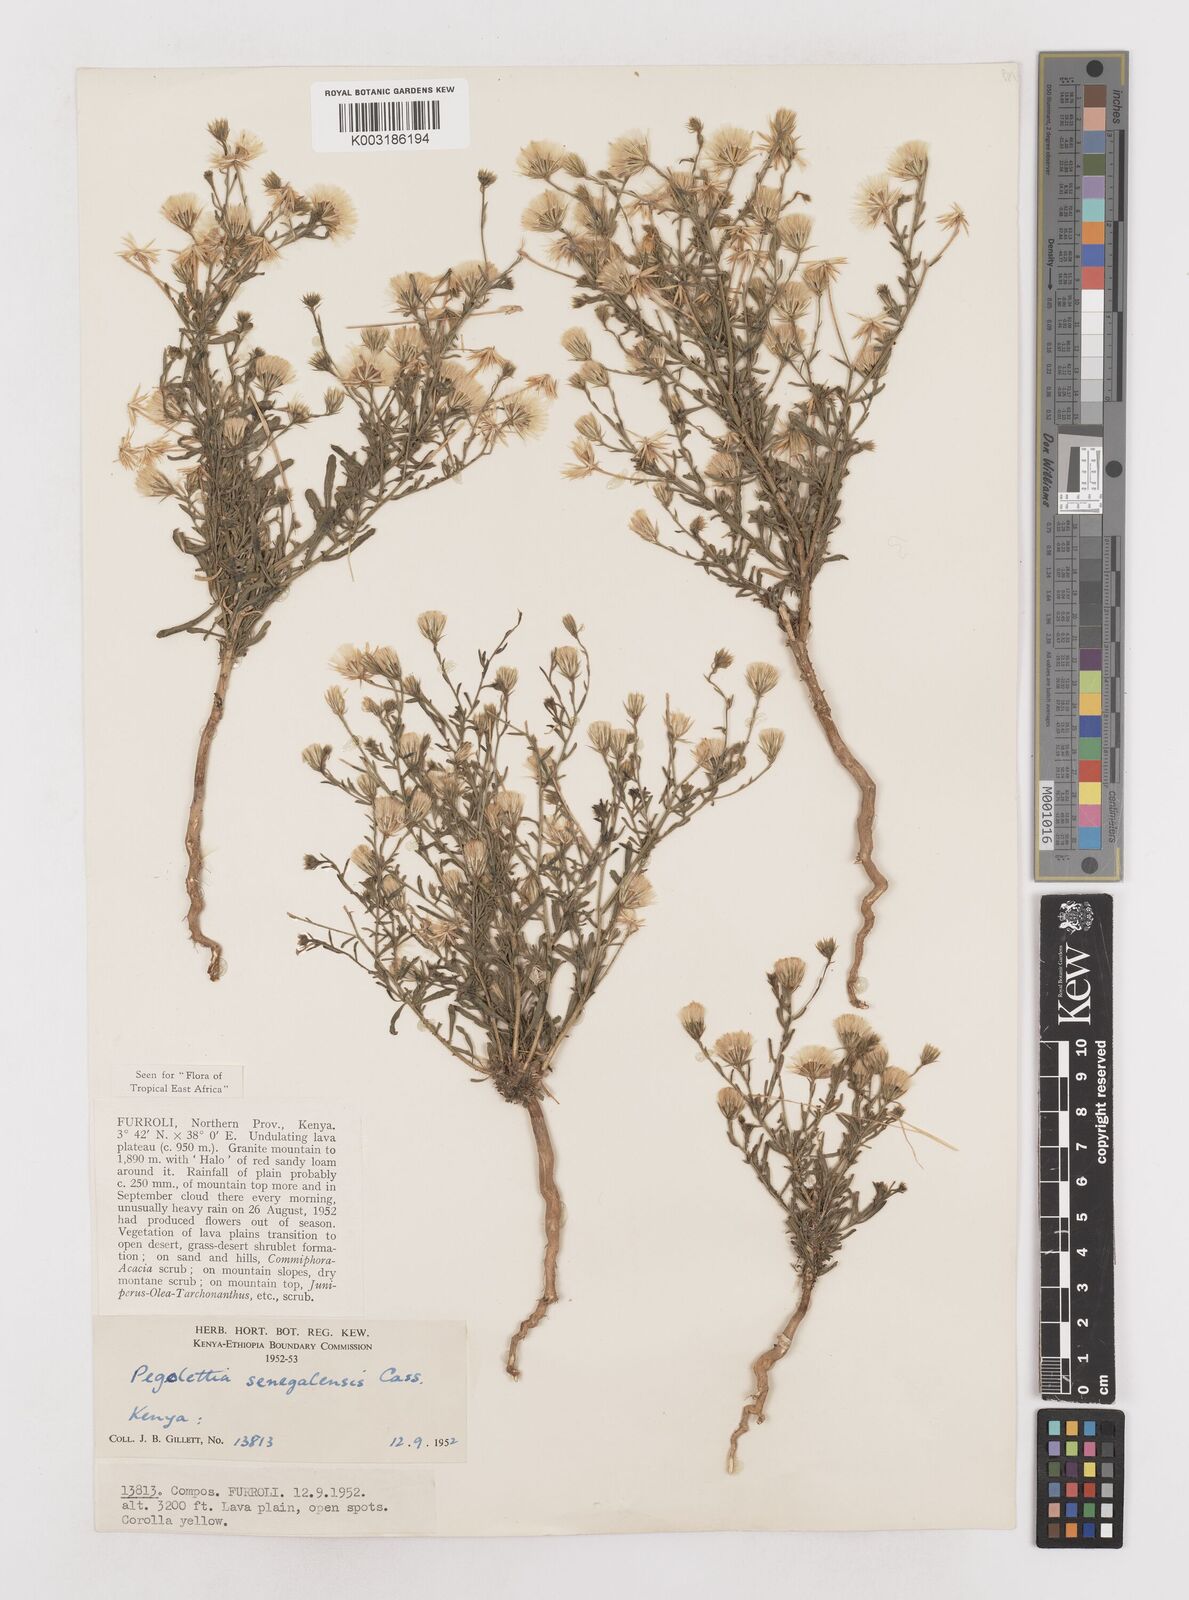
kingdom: Plantae
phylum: Tracheophyta
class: Magnoliopsida
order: Asterales
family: Asteraceae
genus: Pegolettia
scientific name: Pegolettia senegalensis
